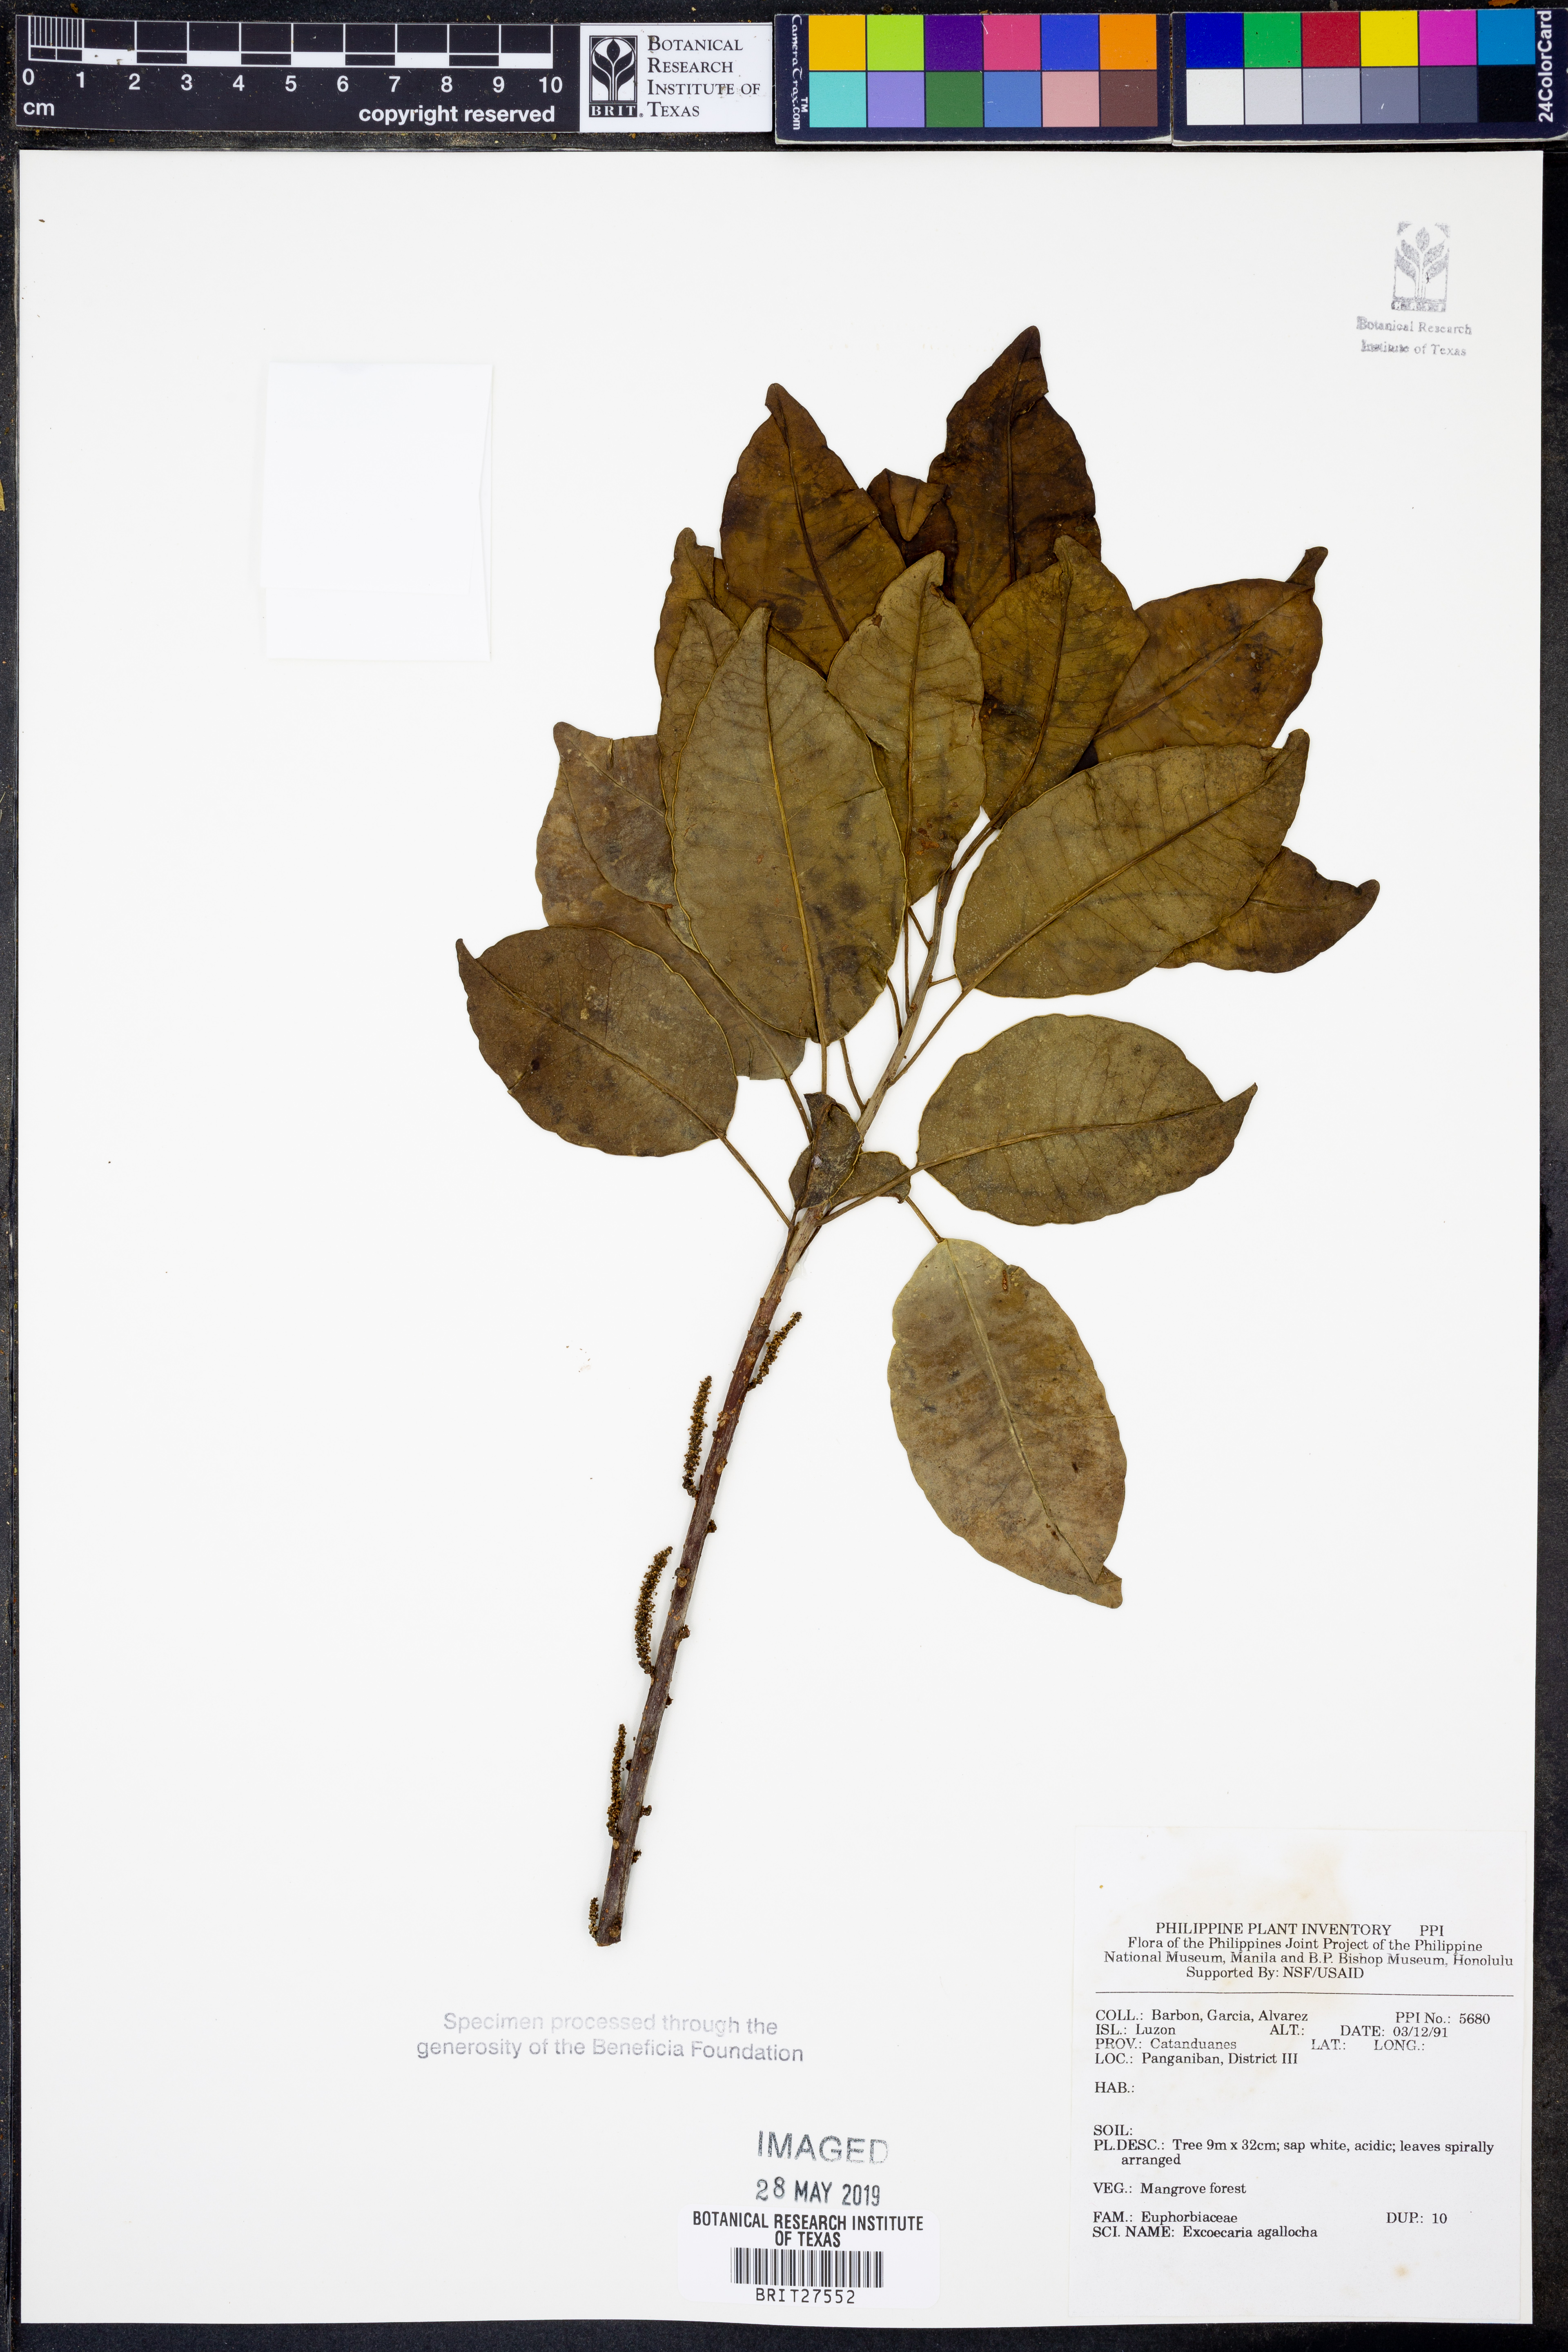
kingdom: Plantae
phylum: Tracheophyta
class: Magnoliopsida
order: Malpighiales
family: Euphorbiaceae
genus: Excoecaria
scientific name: Excoecaria agallocha
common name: River poisontree
